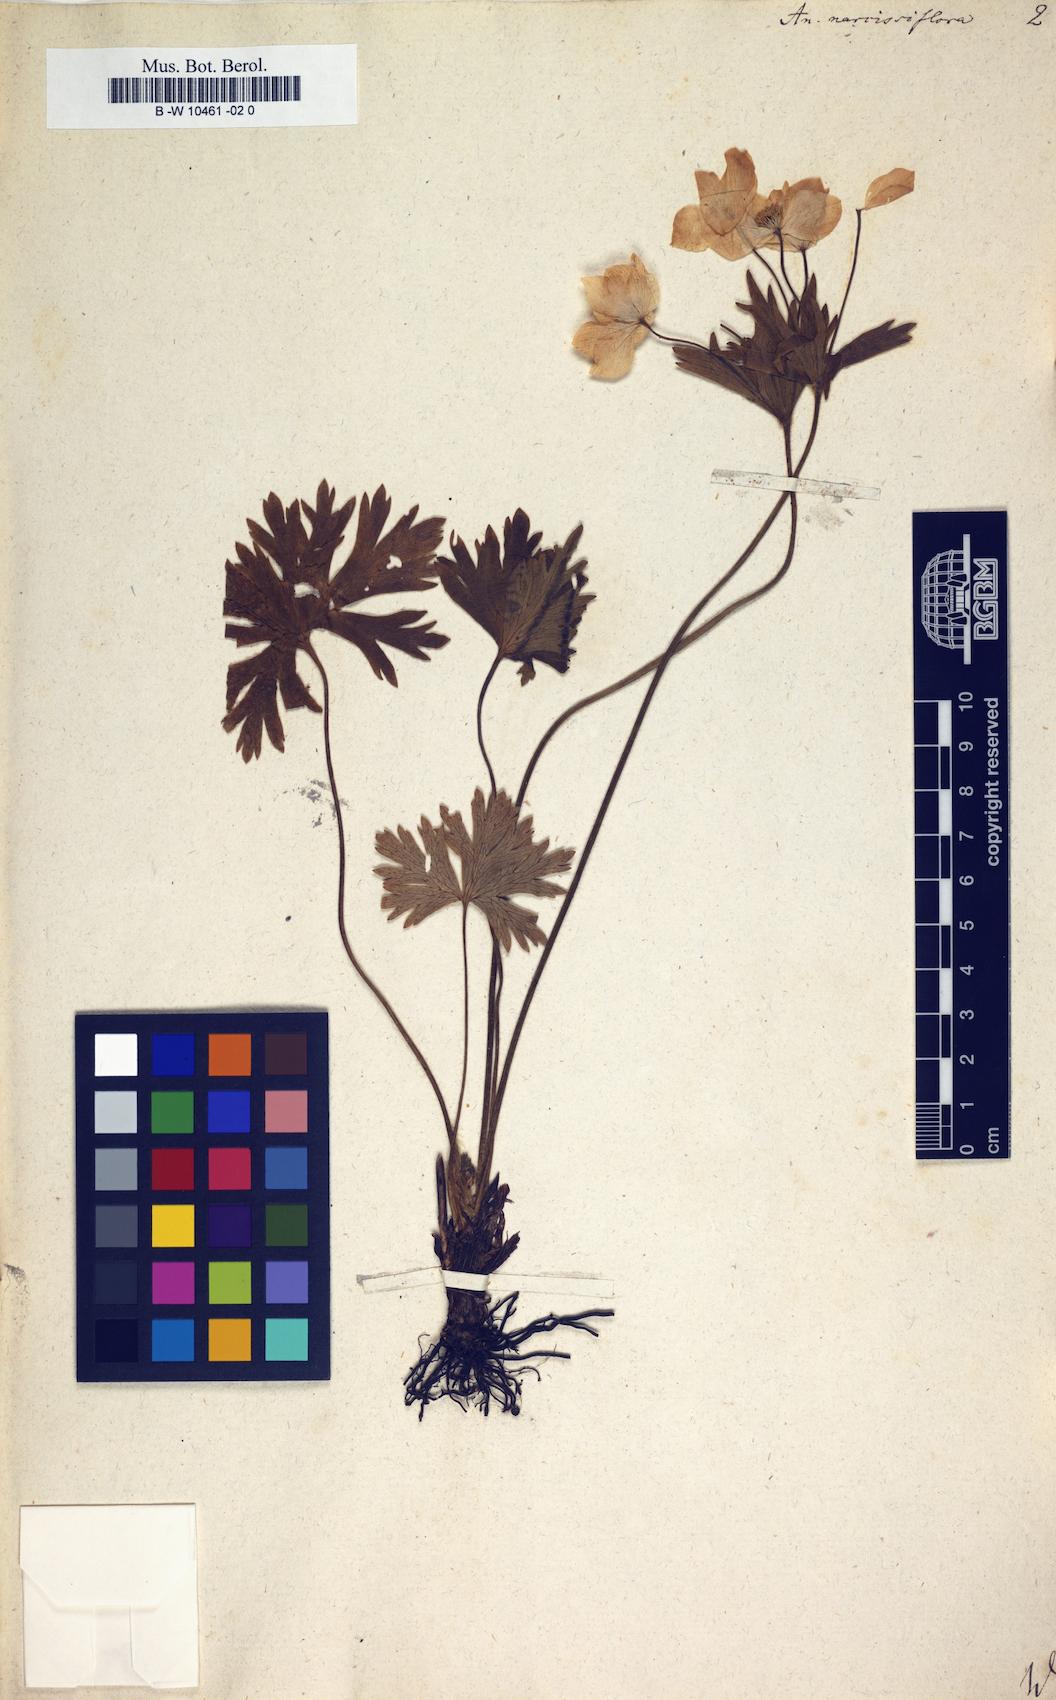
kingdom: Plantae
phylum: Tracheophyta
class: Magnoliopsida
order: Ranunculales
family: Ranunculaceae
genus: Anemonastrum
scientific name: Anemonastrum narcissiflorum
